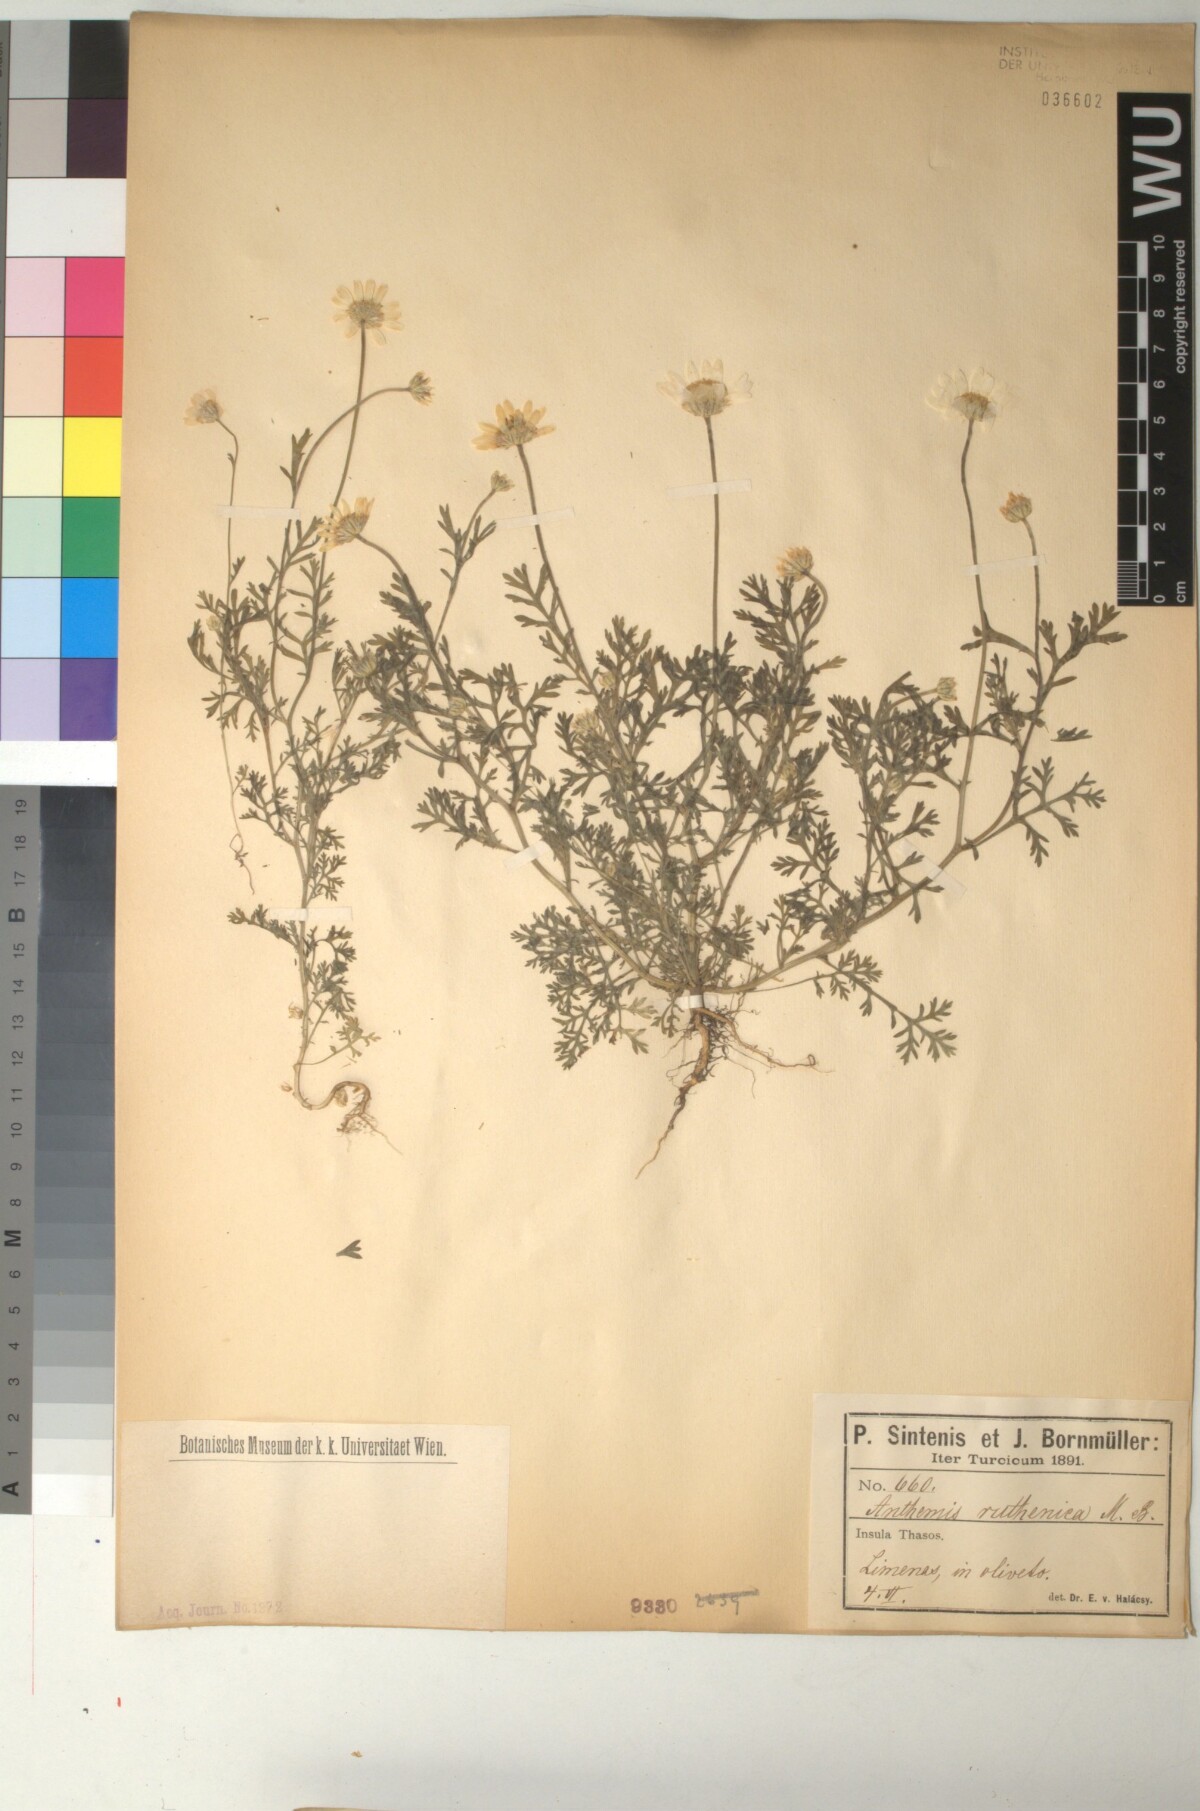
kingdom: Plantae
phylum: Tracheophyta
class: Magnoliopsida
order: Asterales
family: Asteraceae
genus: Anthemis
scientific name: Anthemis ruthenica
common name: Eastern chamomile
